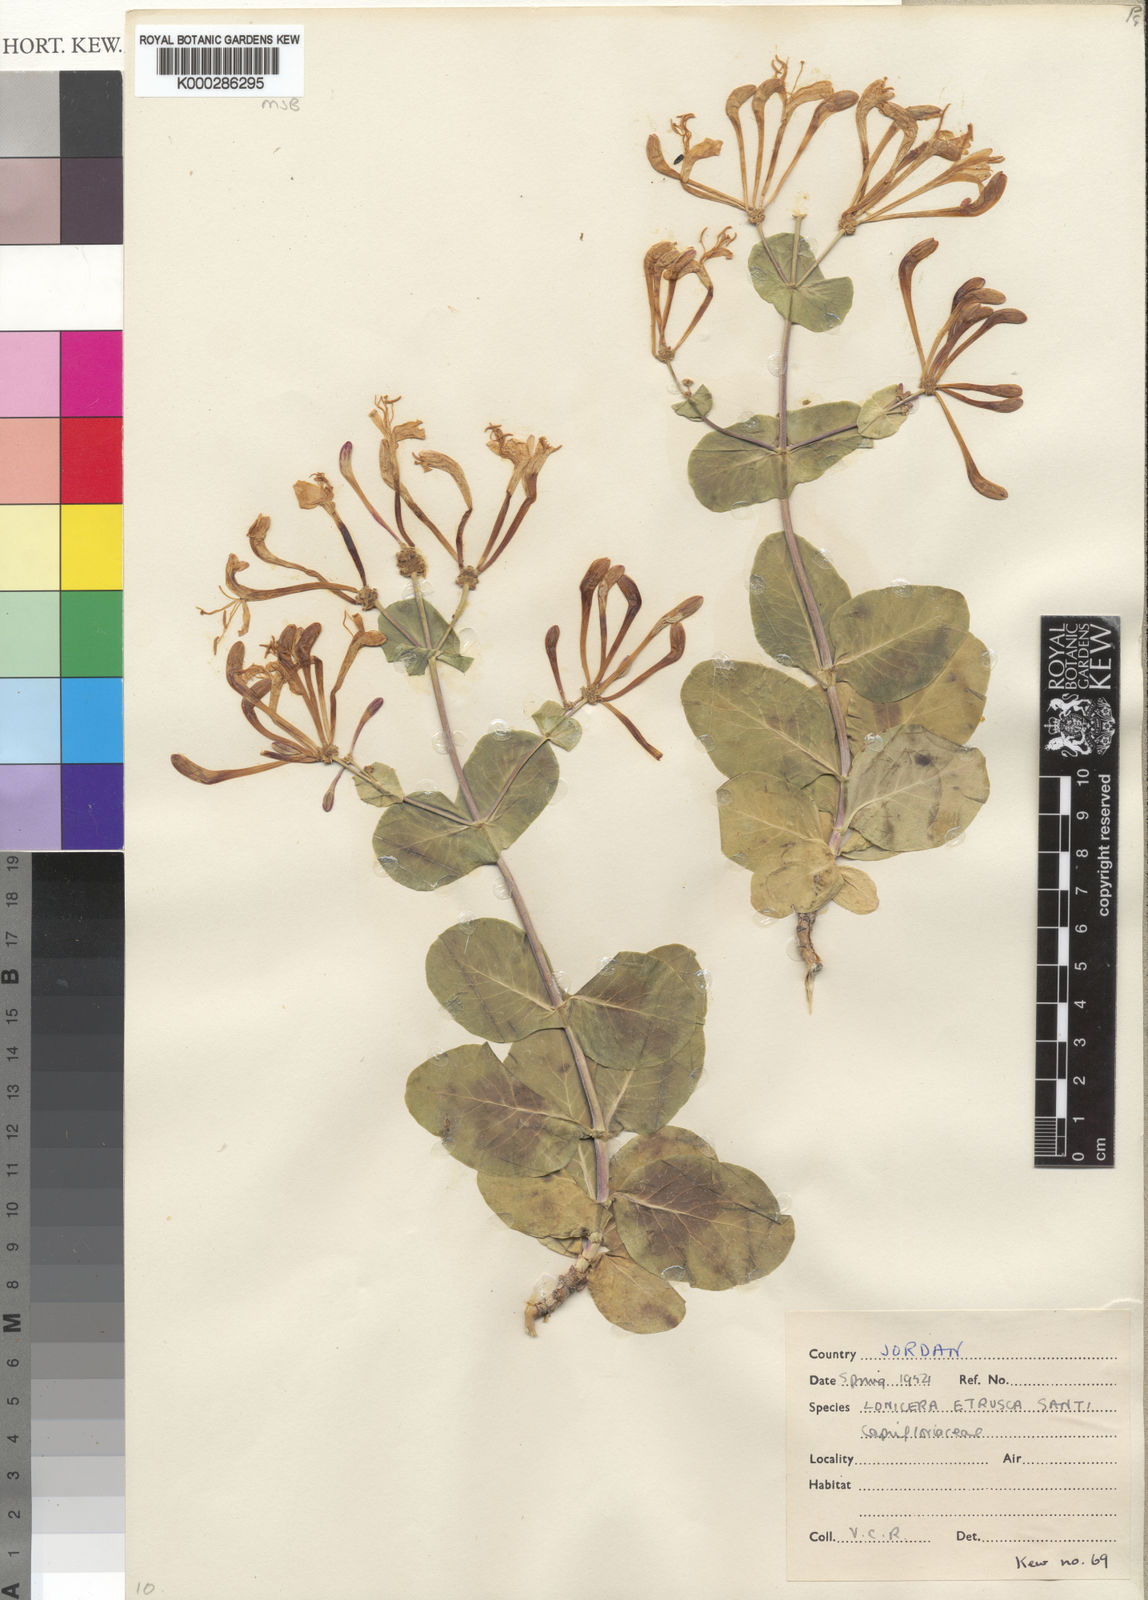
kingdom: Plantae
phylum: Tracheophyta
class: Magnoliopsida
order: Dipsacales
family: Caprifoliaceae
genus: Lonicera
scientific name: Lonicera etrusca
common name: Etruscan honeysuckle
